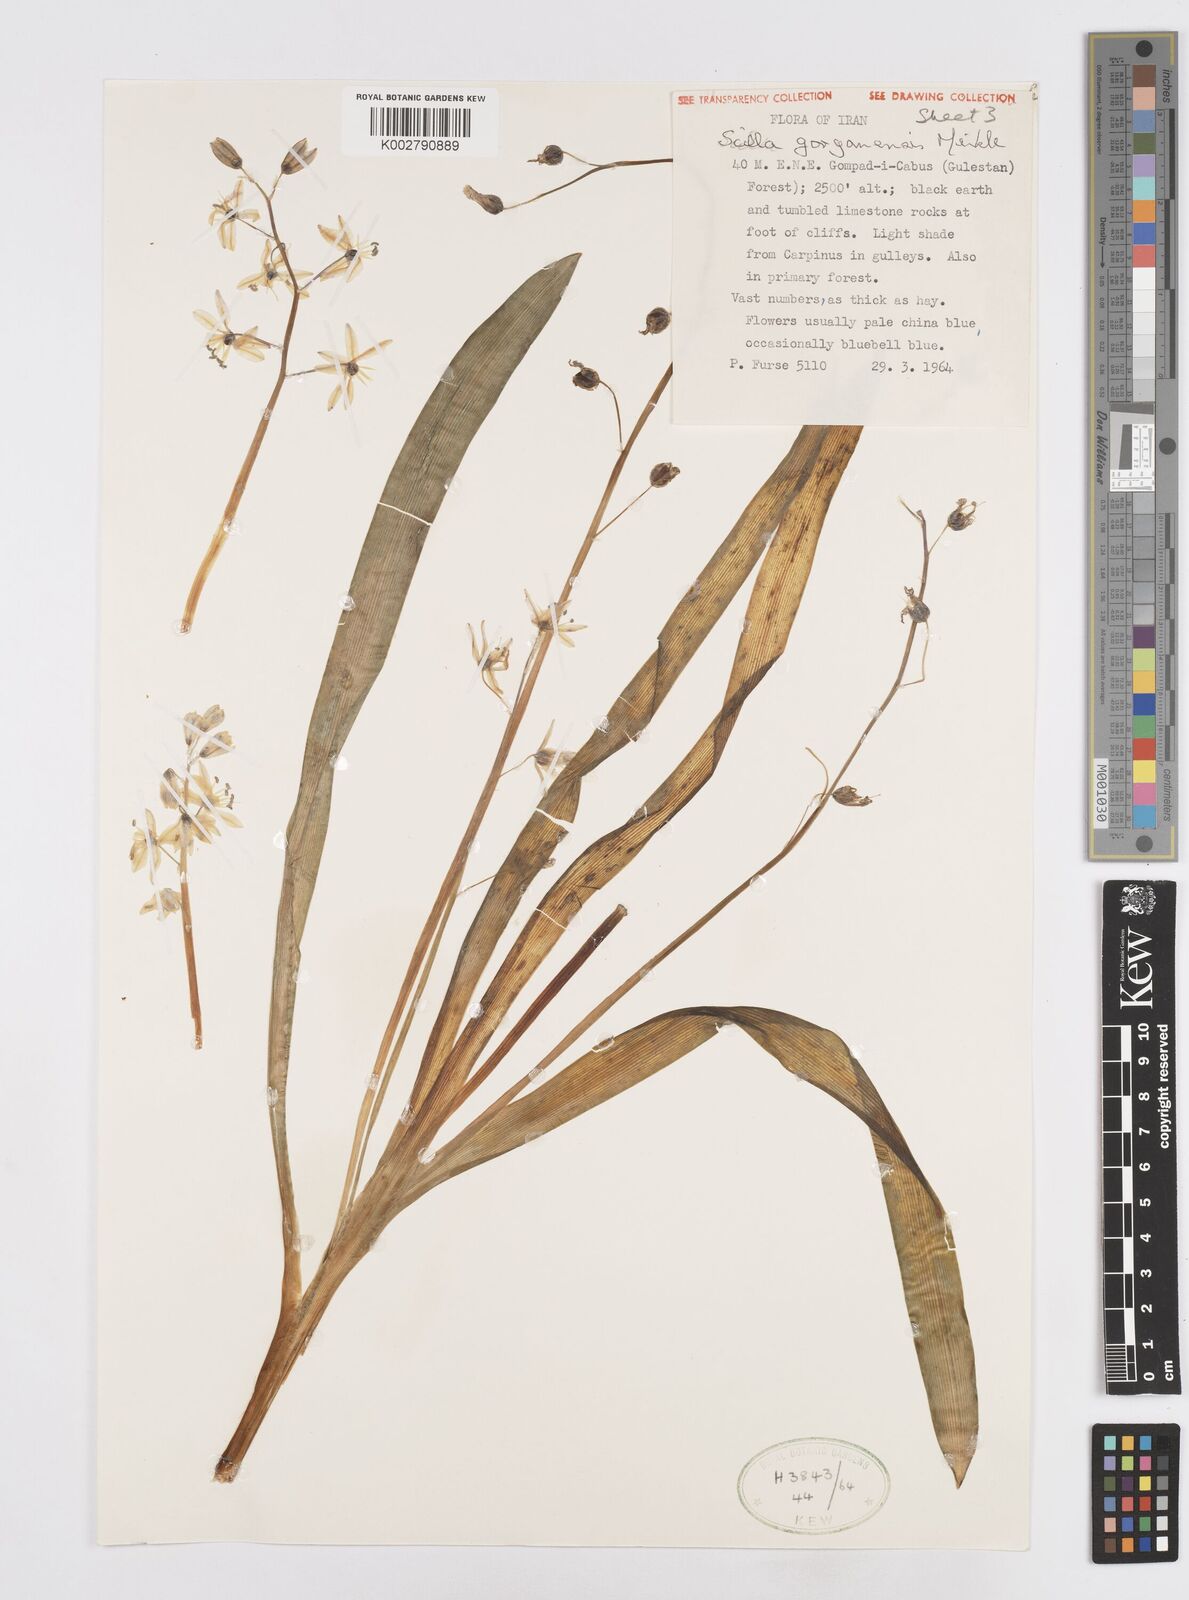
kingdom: Plantae
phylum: Tracheophyta
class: Liliopsida
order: Asparagales
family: Asparagaceae
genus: Fessia
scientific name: Fessia gorganica
